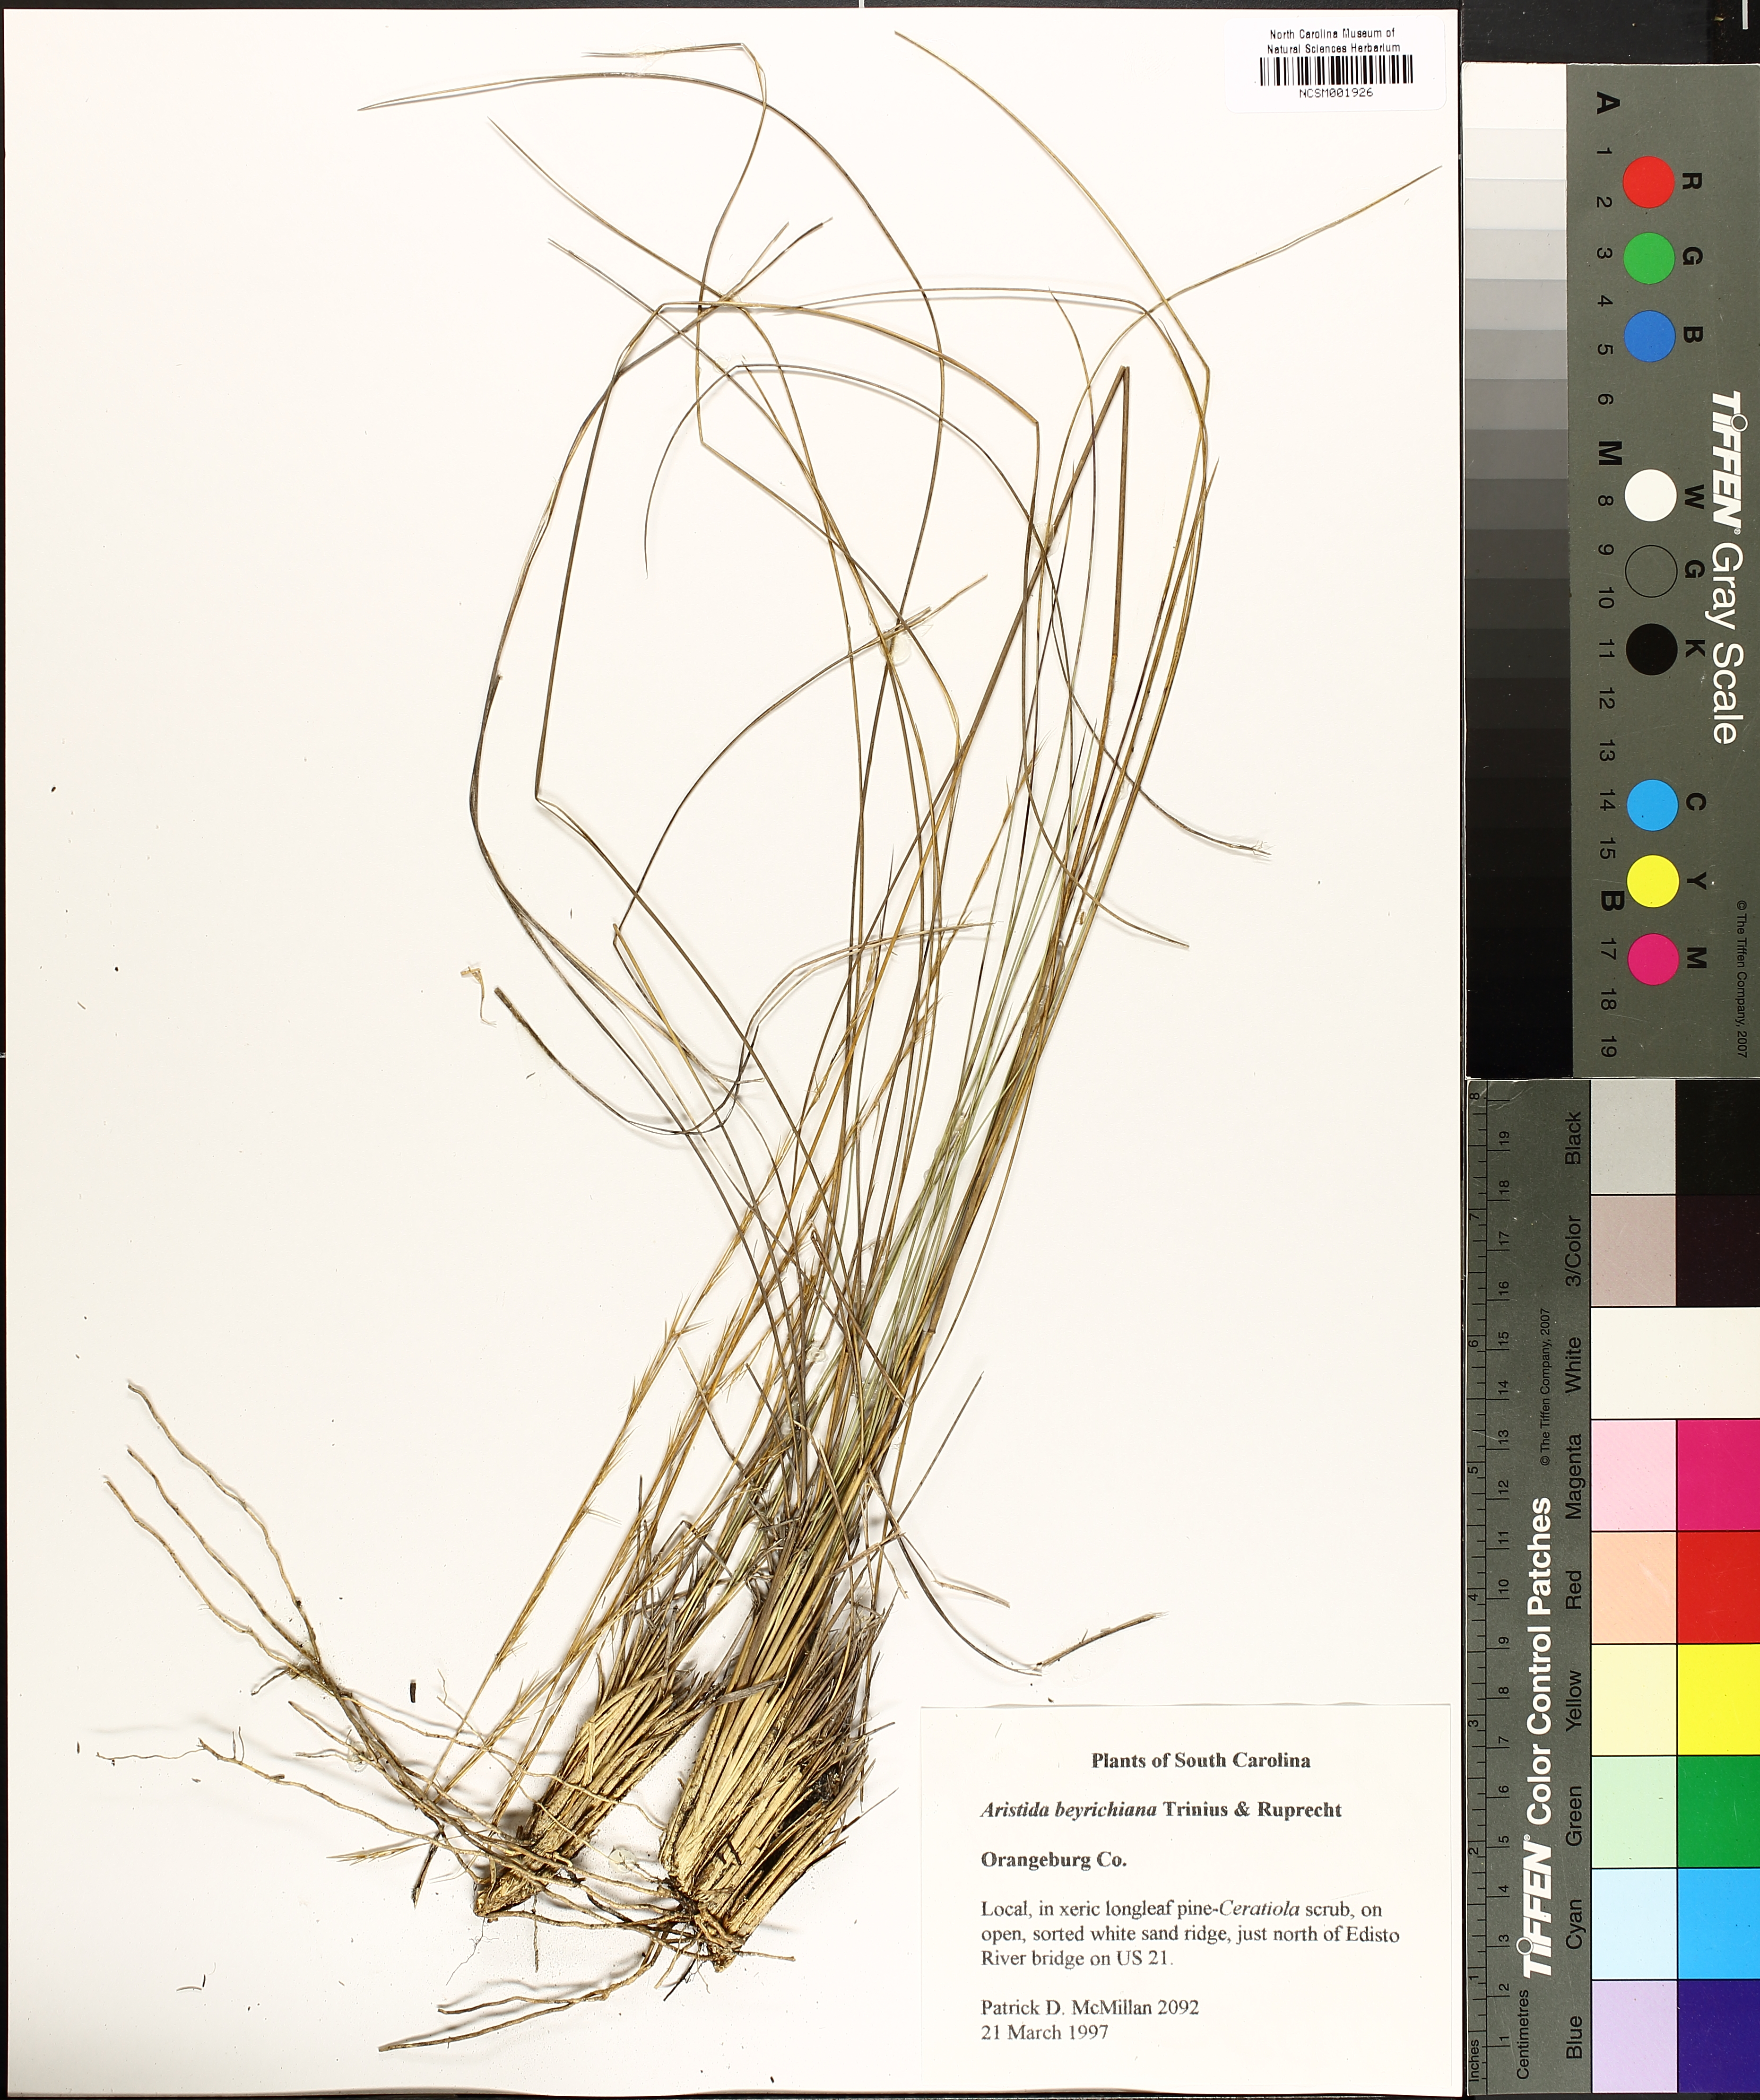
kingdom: Plantae
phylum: Tracheophyta
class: Liliopsida
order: Poales
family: Poaceae
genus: Aristida
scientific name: Aristida beyrichiana
